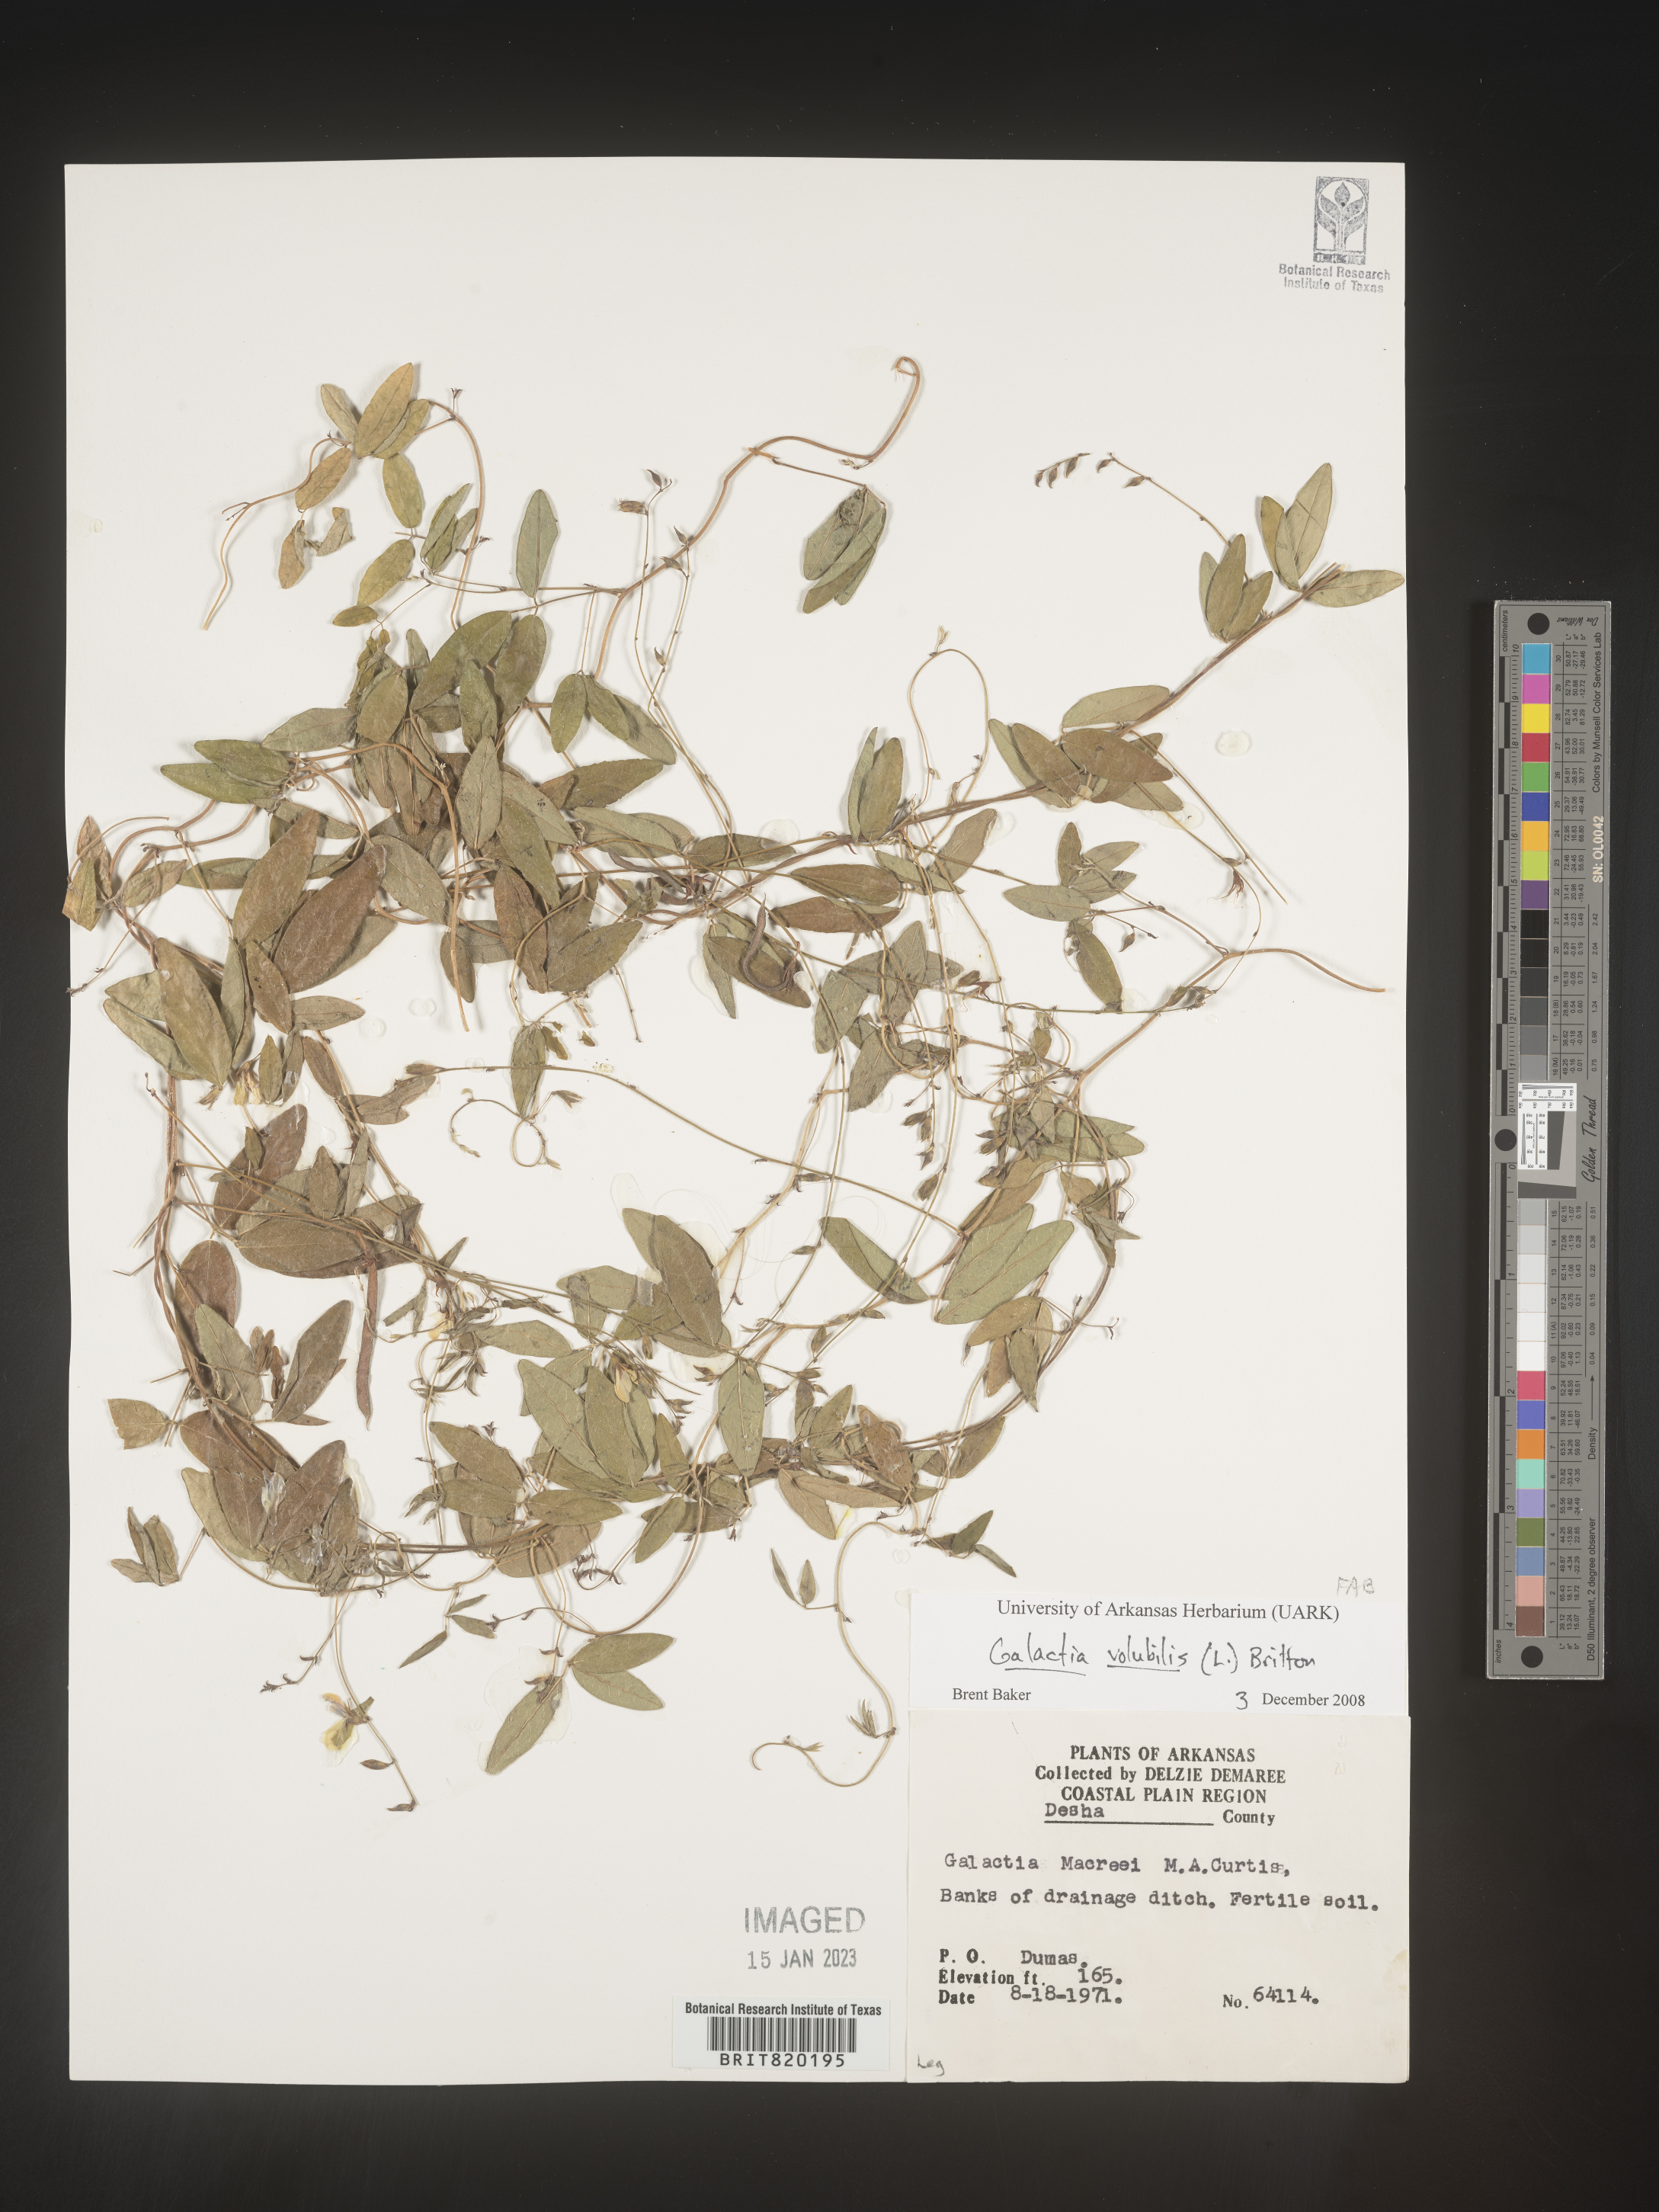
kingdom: Plantae
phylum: Tracheophyta
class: Magnoliopsida
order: Fabales
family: Fabaceae
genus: Galactia
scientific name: Galactia volubilis
